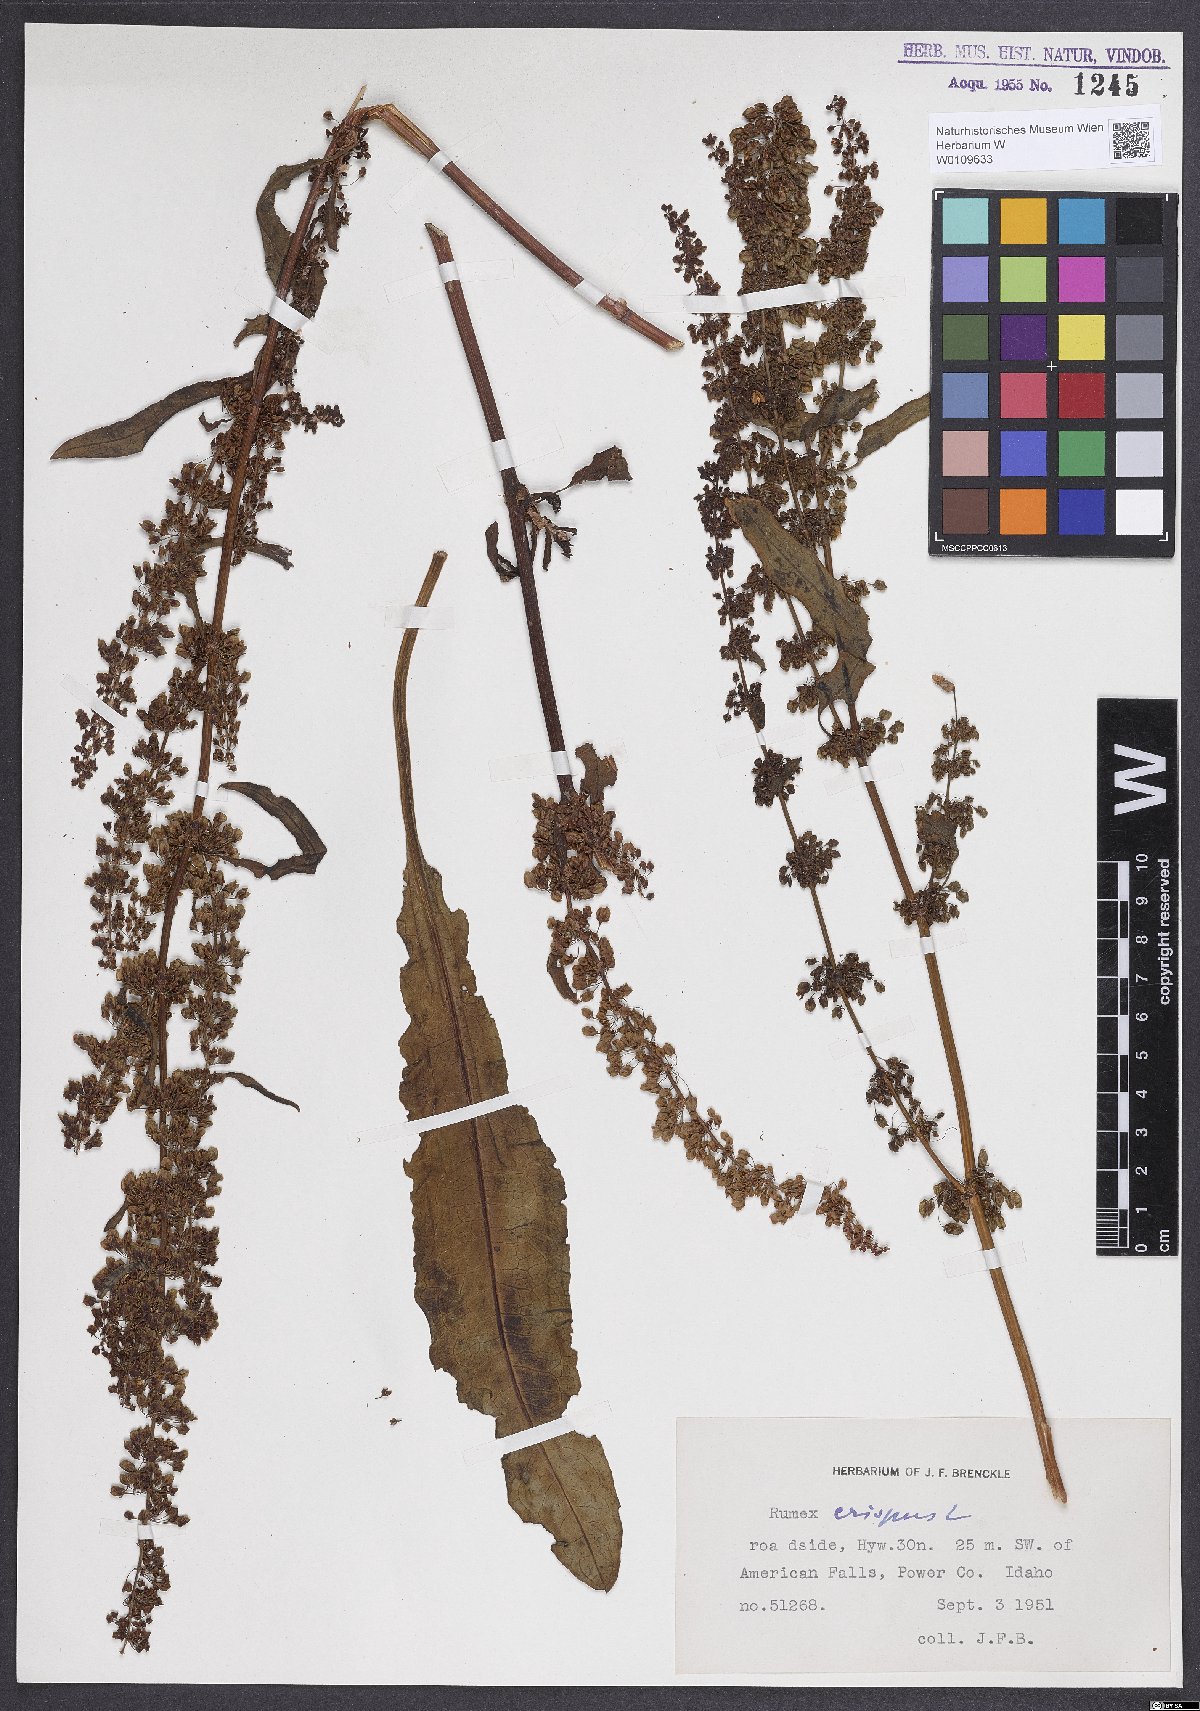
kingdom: Plantae
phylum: Tracheophyta
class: Magnoliopsida
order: Caryophyllales
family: Polygonaceae
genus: Rumex
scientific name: Rumex crispus
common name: Curled dock
